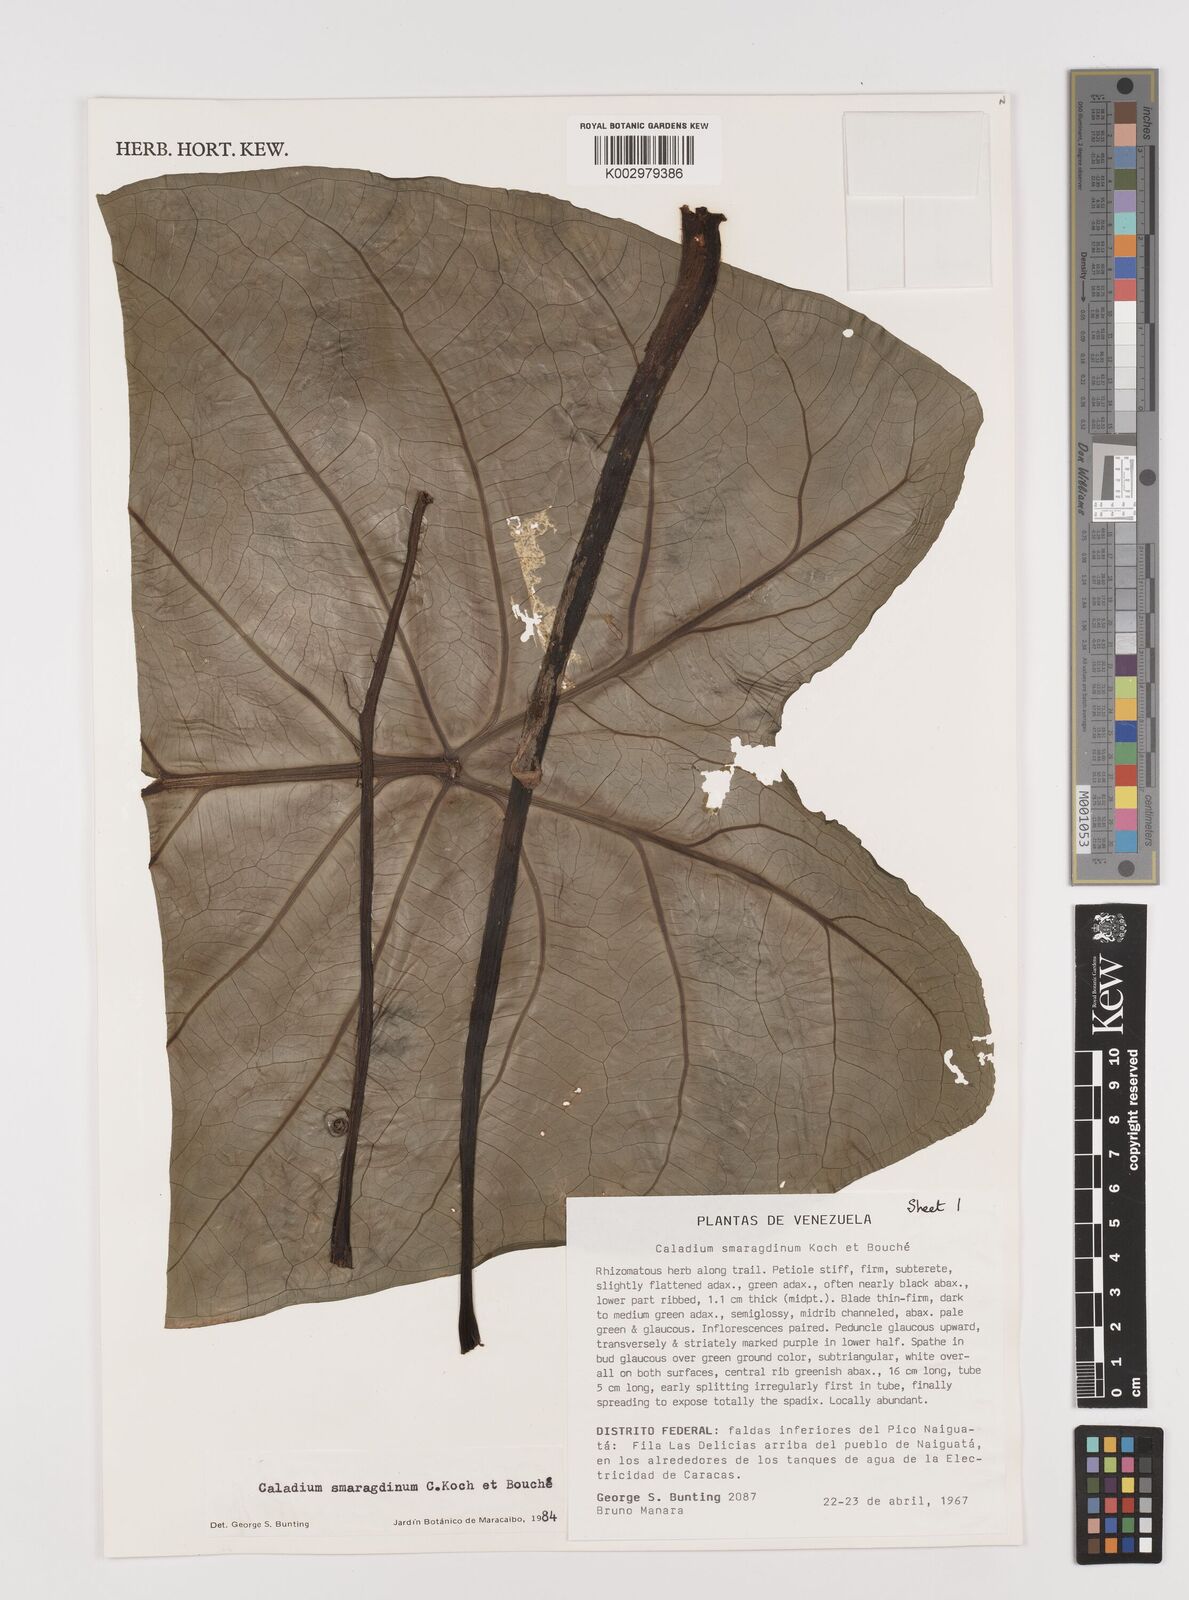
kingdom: Plantae
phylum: Tracheophyta
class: Liliopsida
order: Alismatales
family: Araceae
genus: Caladium
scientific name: Caladium smaragdinum
